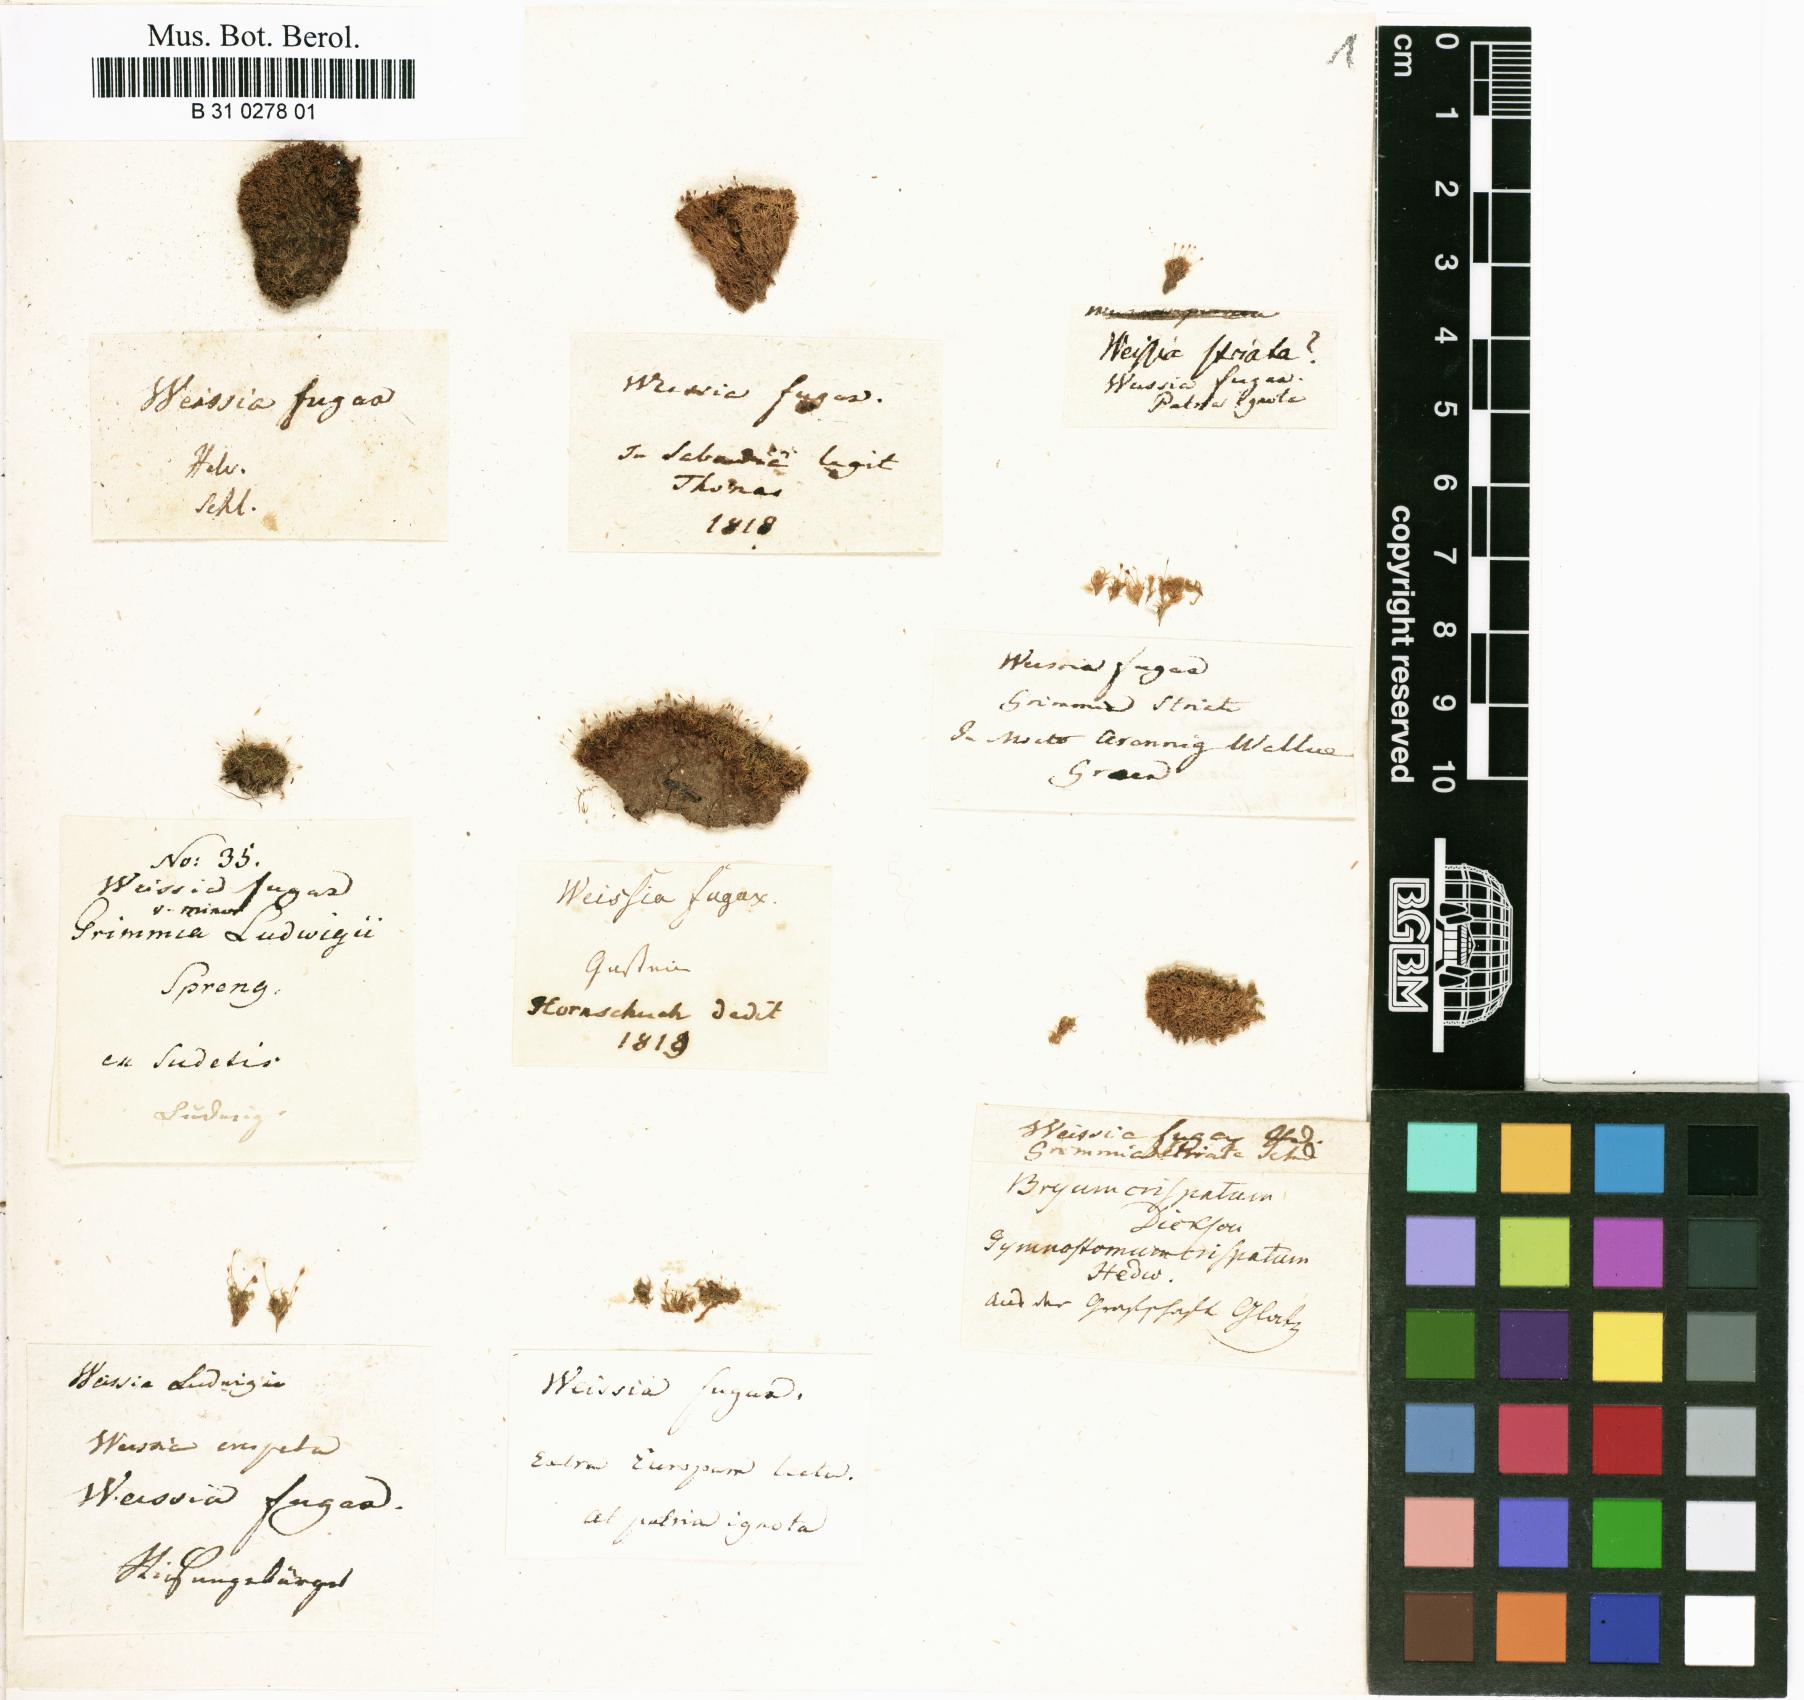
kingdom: Plantae
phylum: Bryophyta
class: Bryopsida
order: Dicranales
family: Rhabdoweisiaceae
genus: Rhabdoweisia
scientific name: Rhabdoweisia fugax
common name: Dwarf streak-moss
